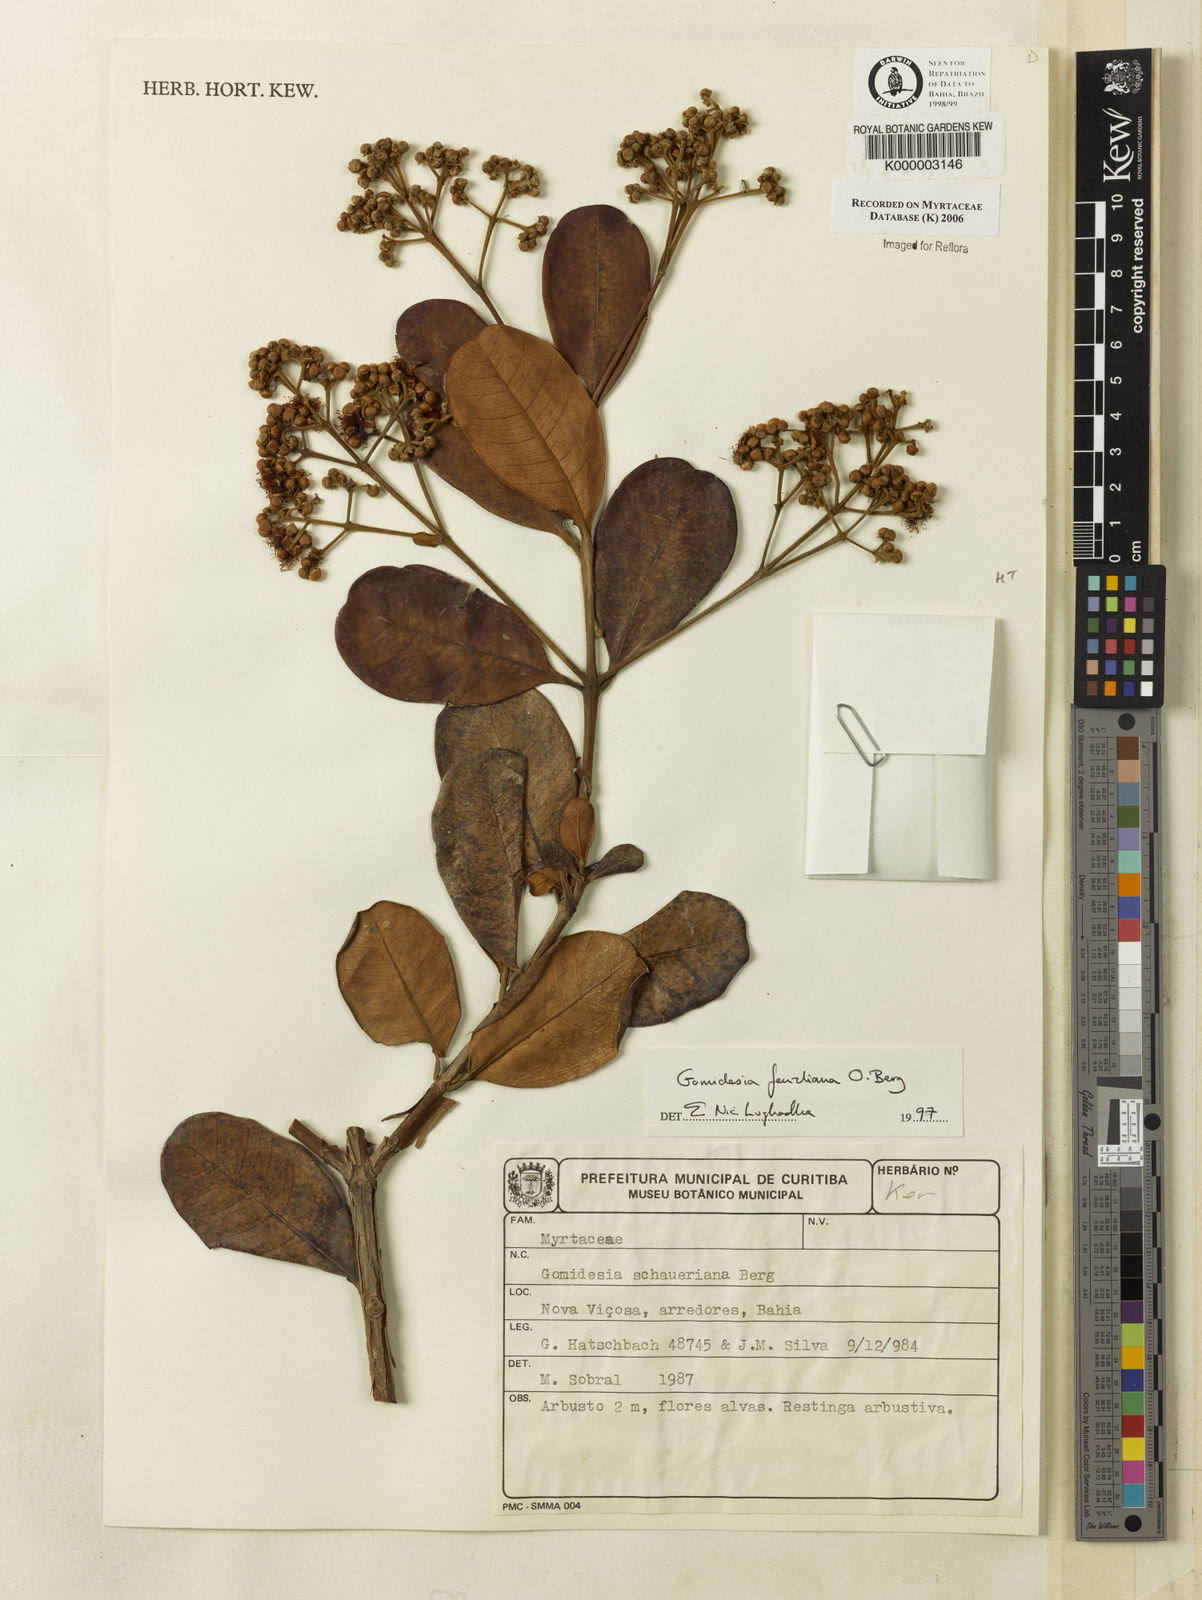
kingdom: Plantae
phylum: Tracheophyta
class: Magnoliopsida
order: Myrtales
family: Myrtaceae
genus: Myrcia
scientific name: Myrcia ilheosensis
